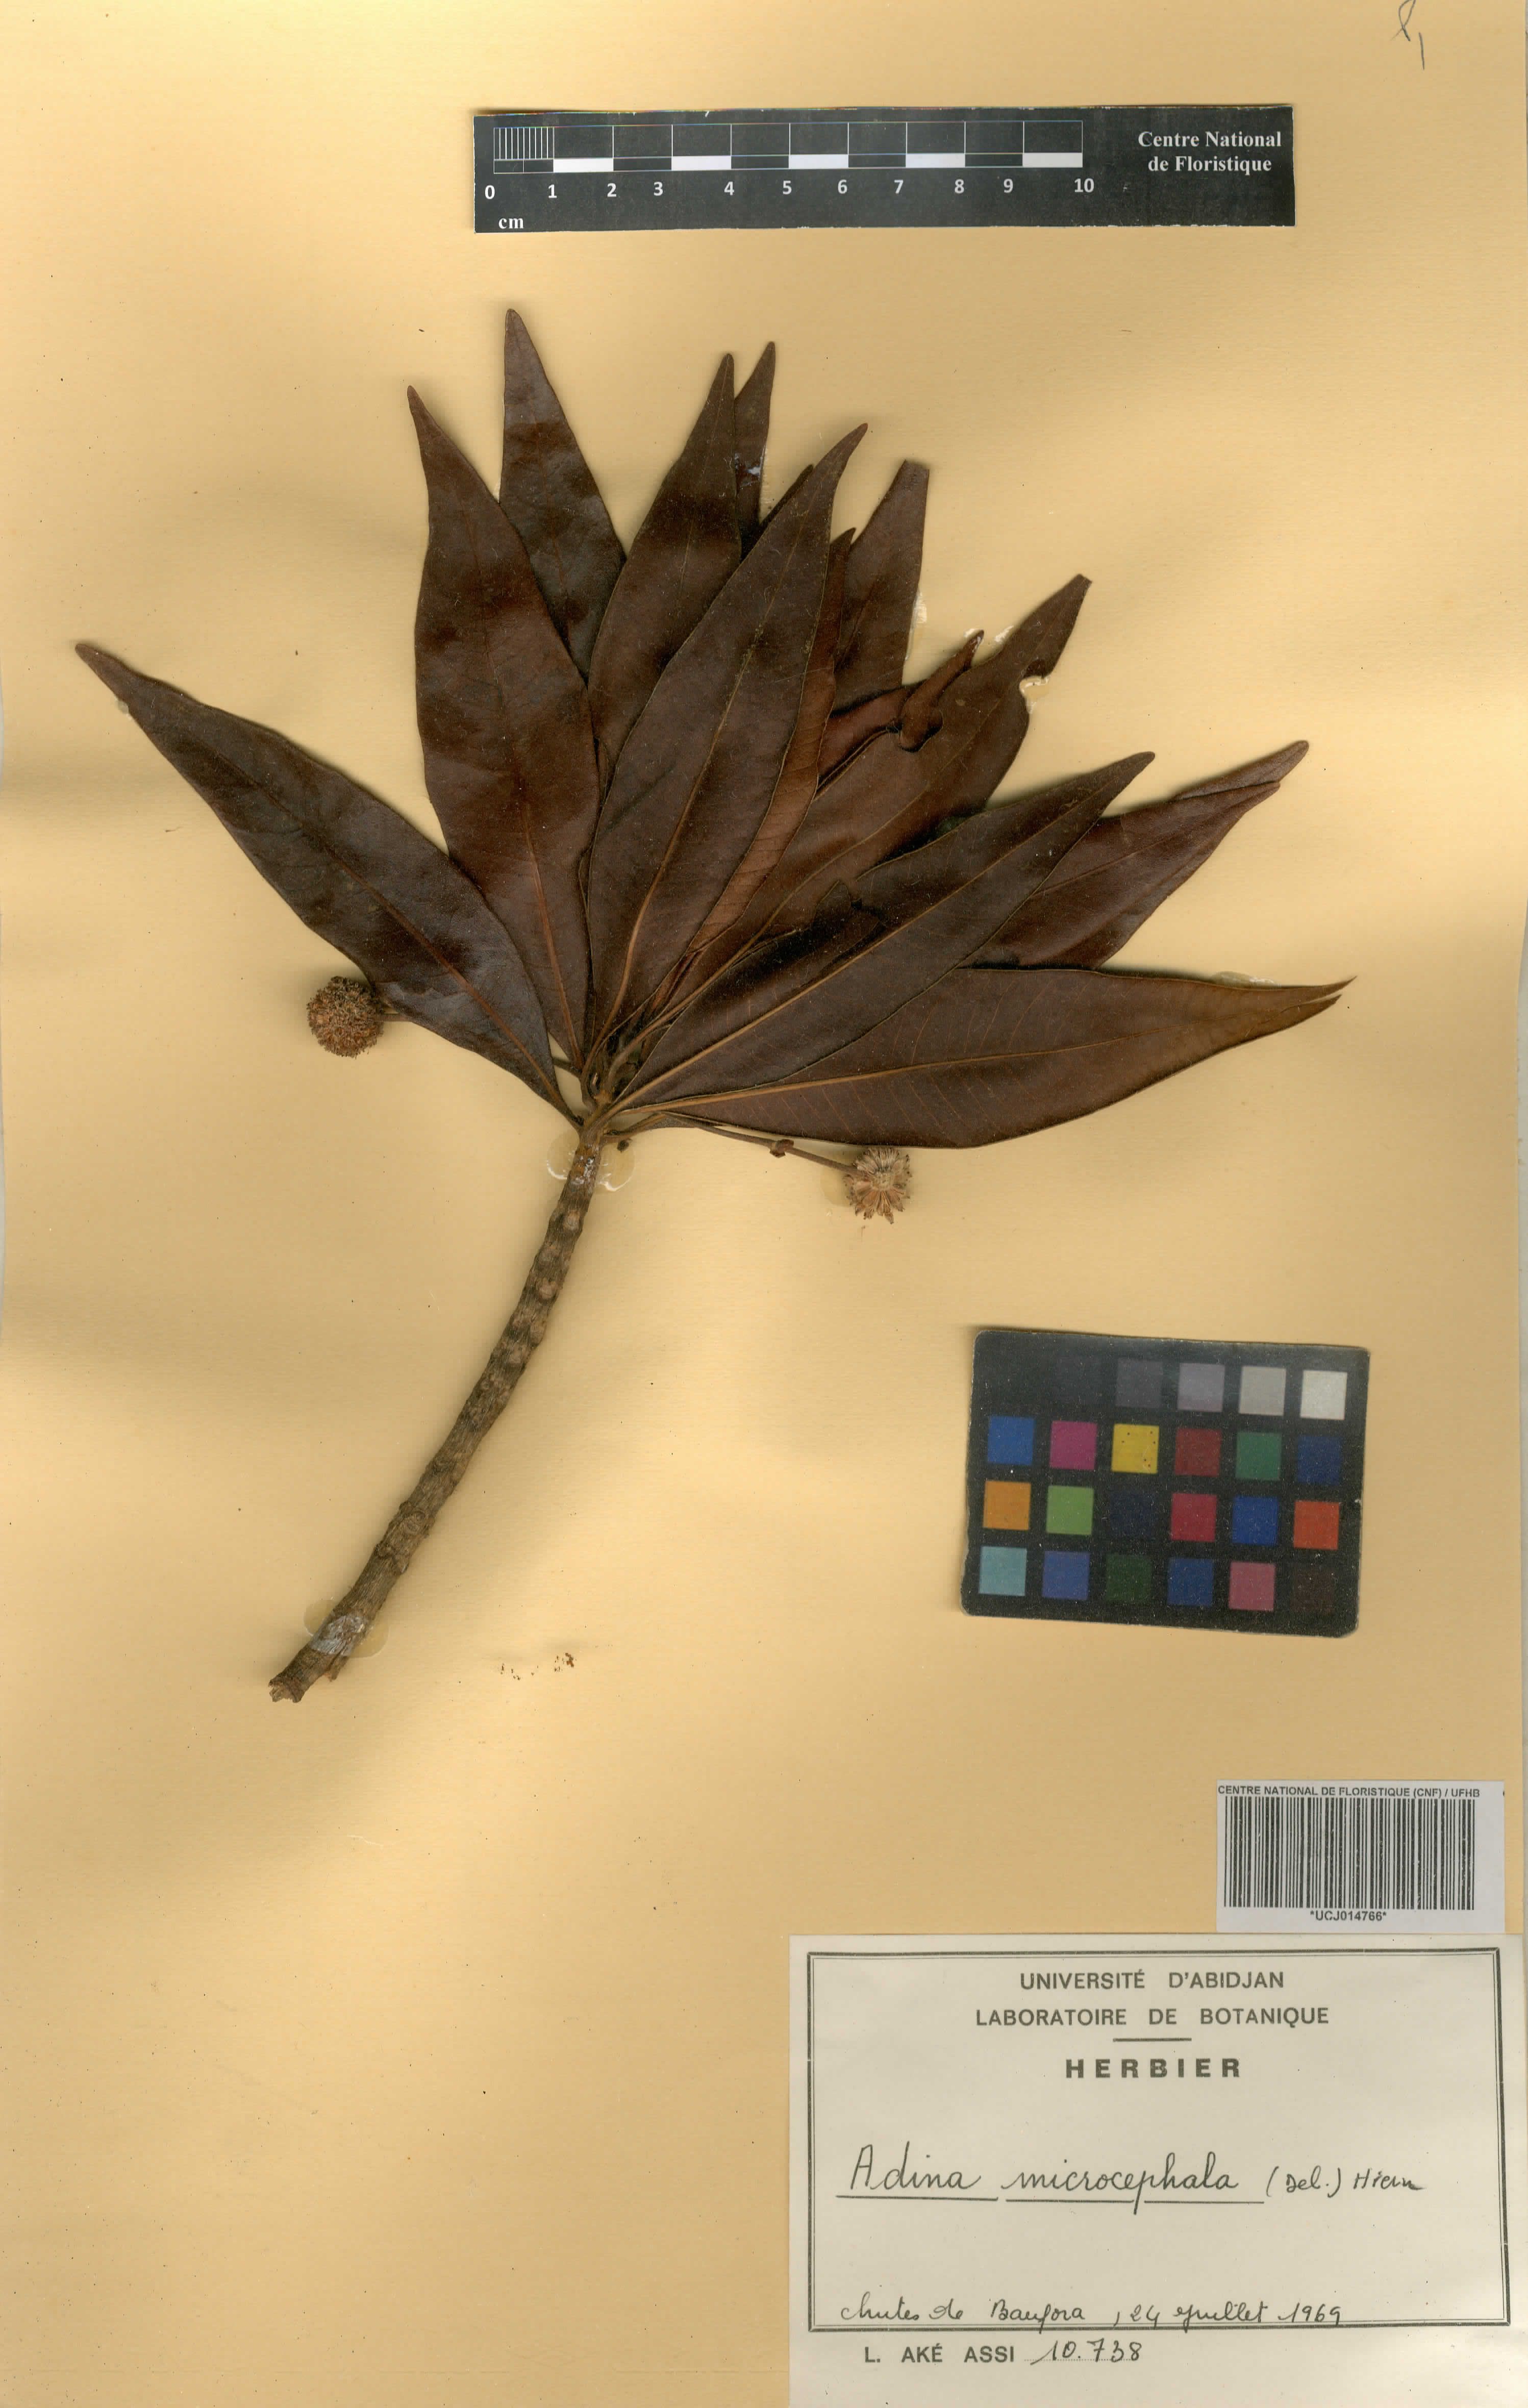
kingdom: Plantae
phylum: Tracheophyta
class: Magnoliopsida
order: Gentianales
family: Rubiaceae
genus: Breonadia
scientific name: Breonadia salicina
